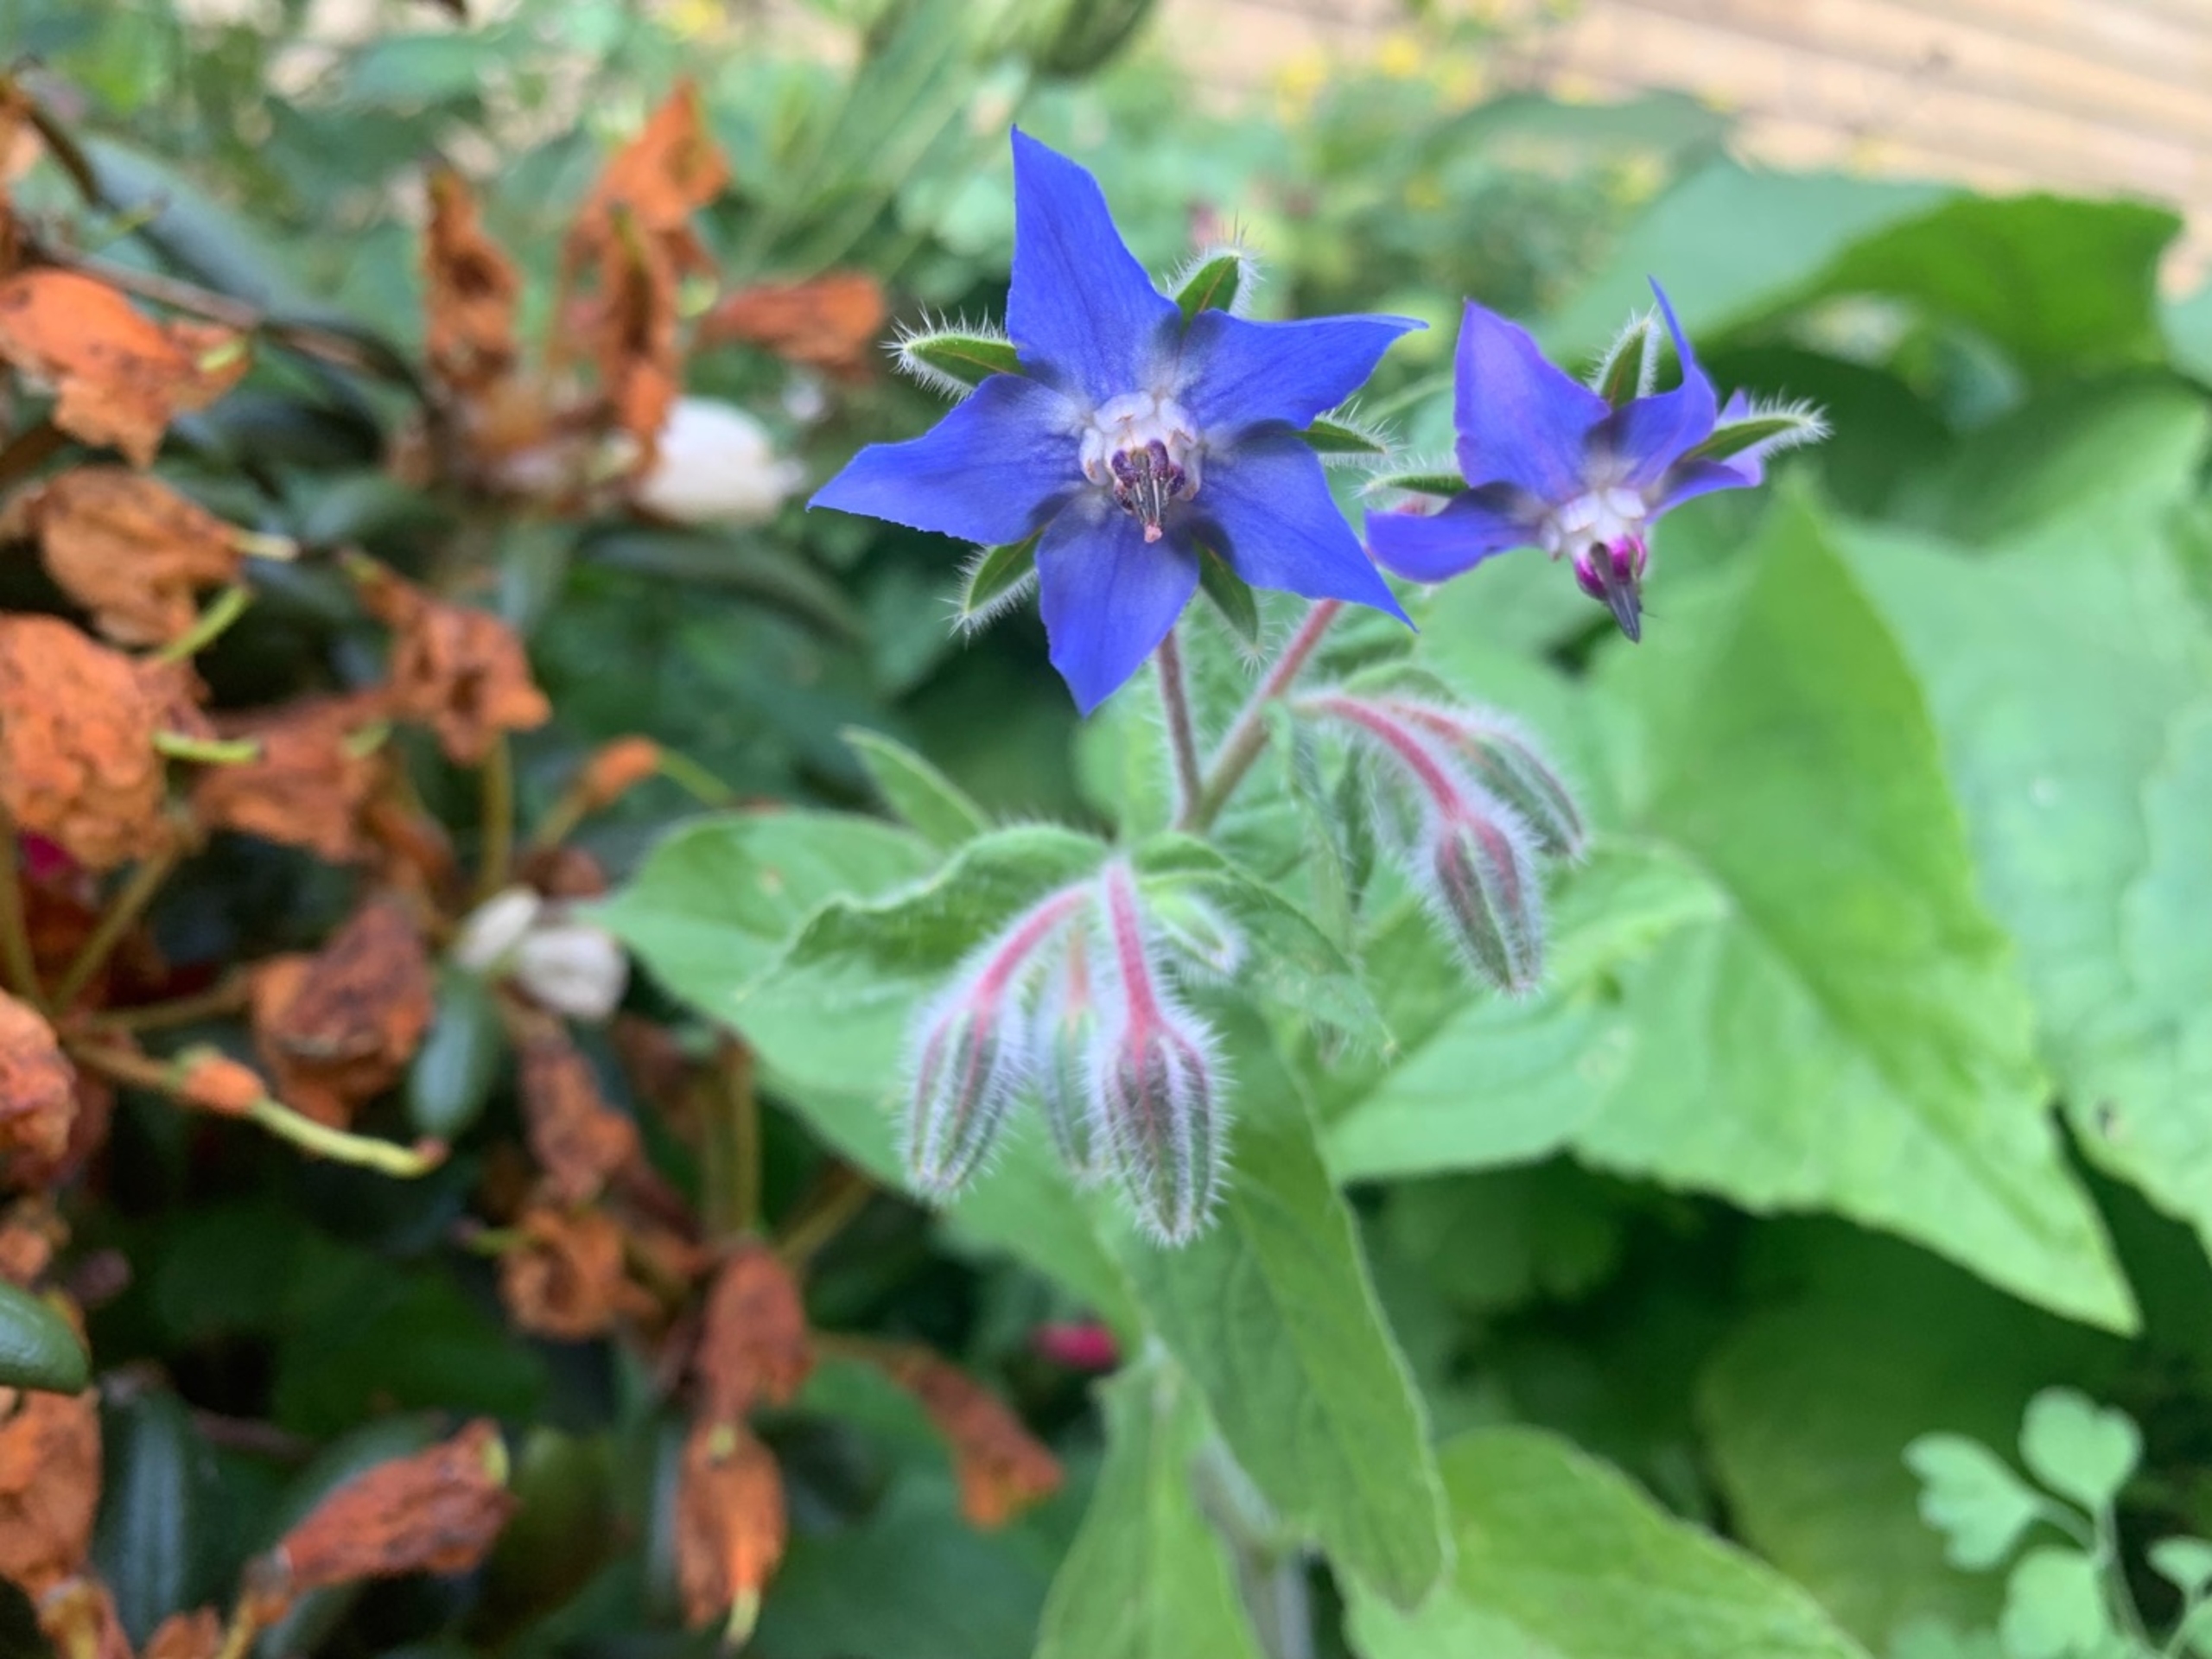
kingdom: Plantae
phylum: Tracheophyta
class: Magnoliopsida
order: Boraginales
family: Boraginaceae
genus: Borago
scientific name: Borago officinalis
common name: Hjulkrone
